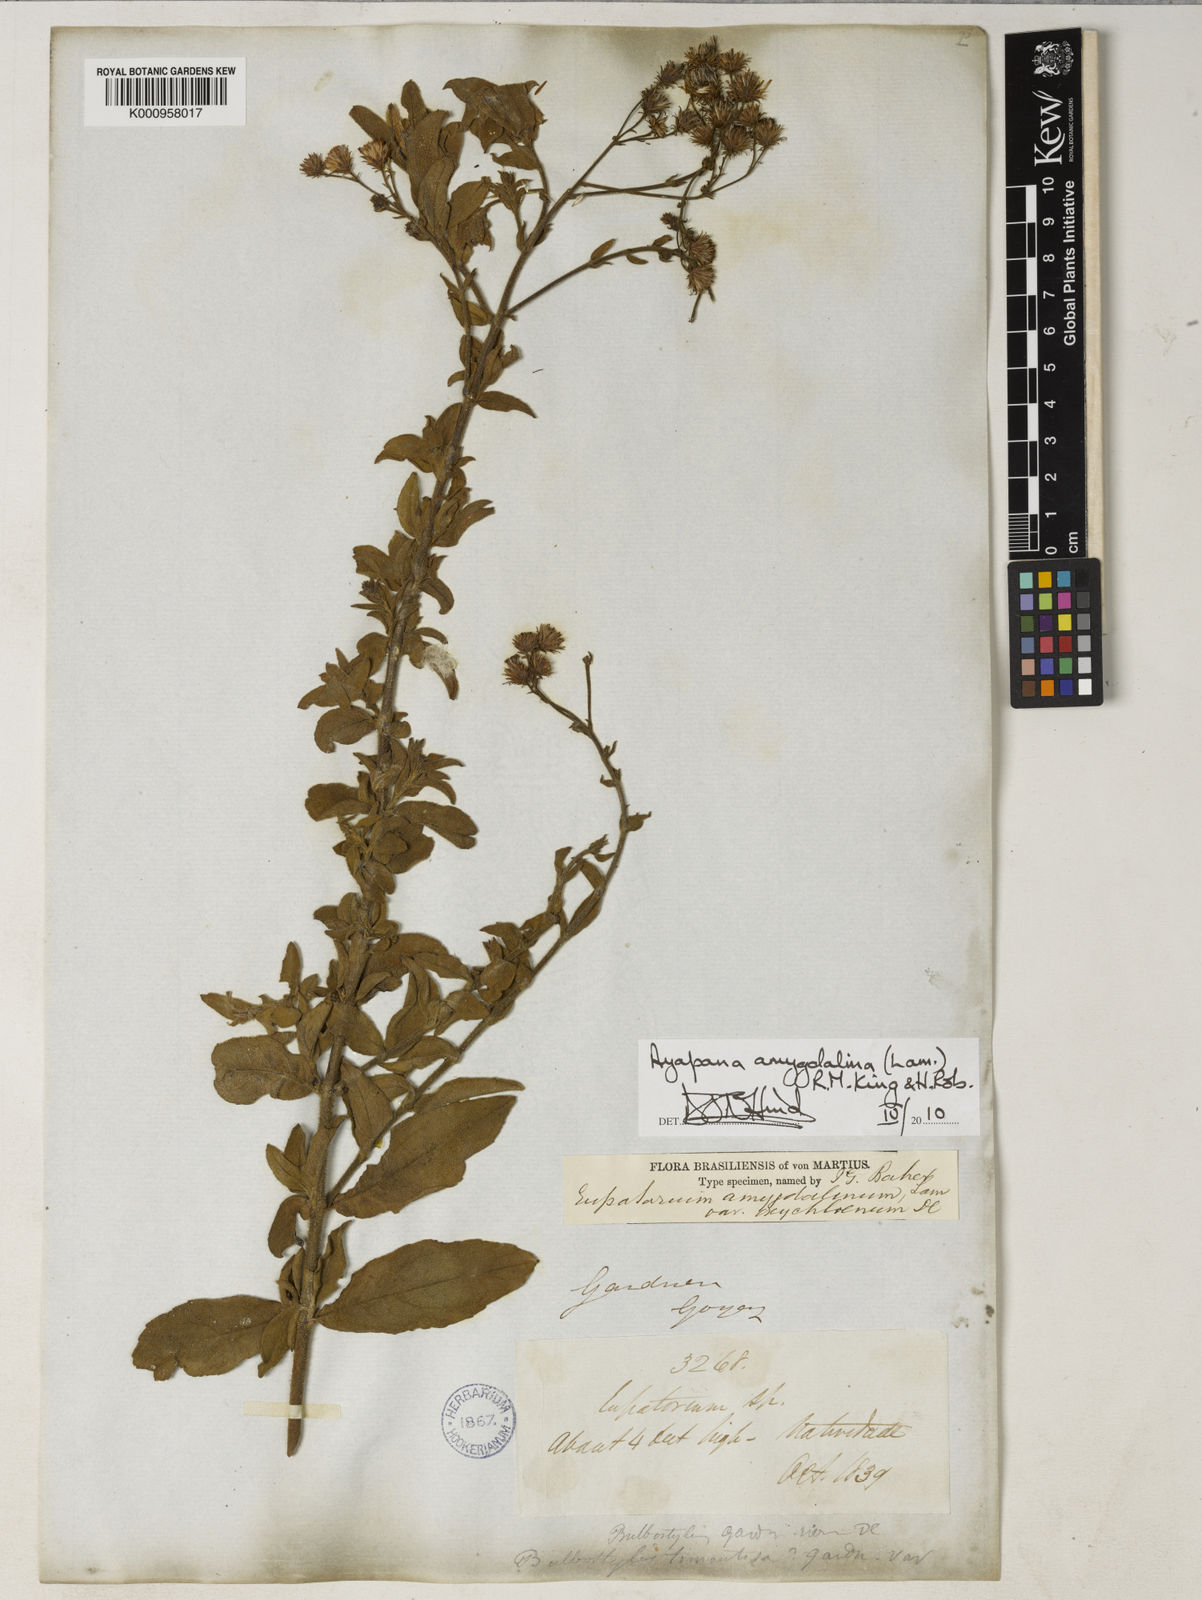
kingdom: Plantae
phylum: Tracheophyta
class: Magnoliopsida
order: Asterales
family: Asteraceae
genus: Ayapana
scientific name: Ayapana amygdalina
